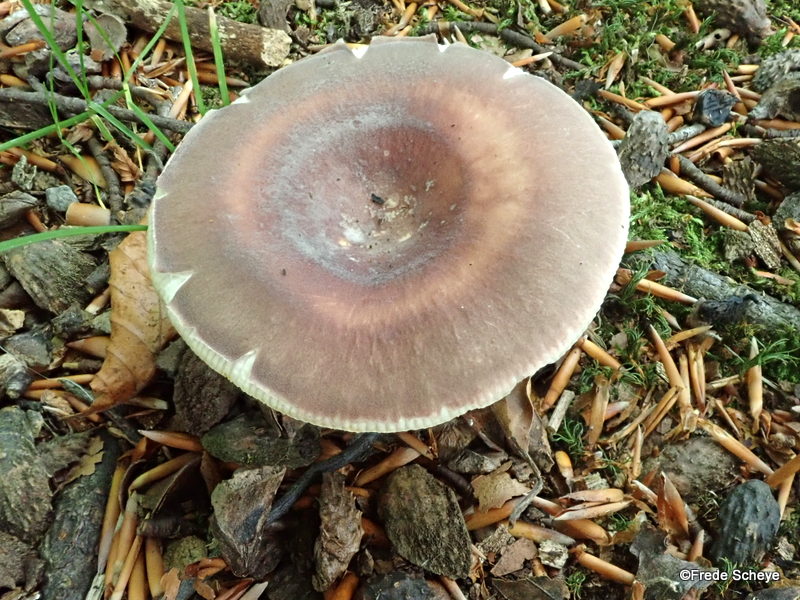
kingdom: Fungi
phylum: Basidiomycota
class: Agaricomycetes
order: Russulales
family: Russulaceae
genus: Russula
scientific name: Russula vesca
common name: spiselig skørhat
